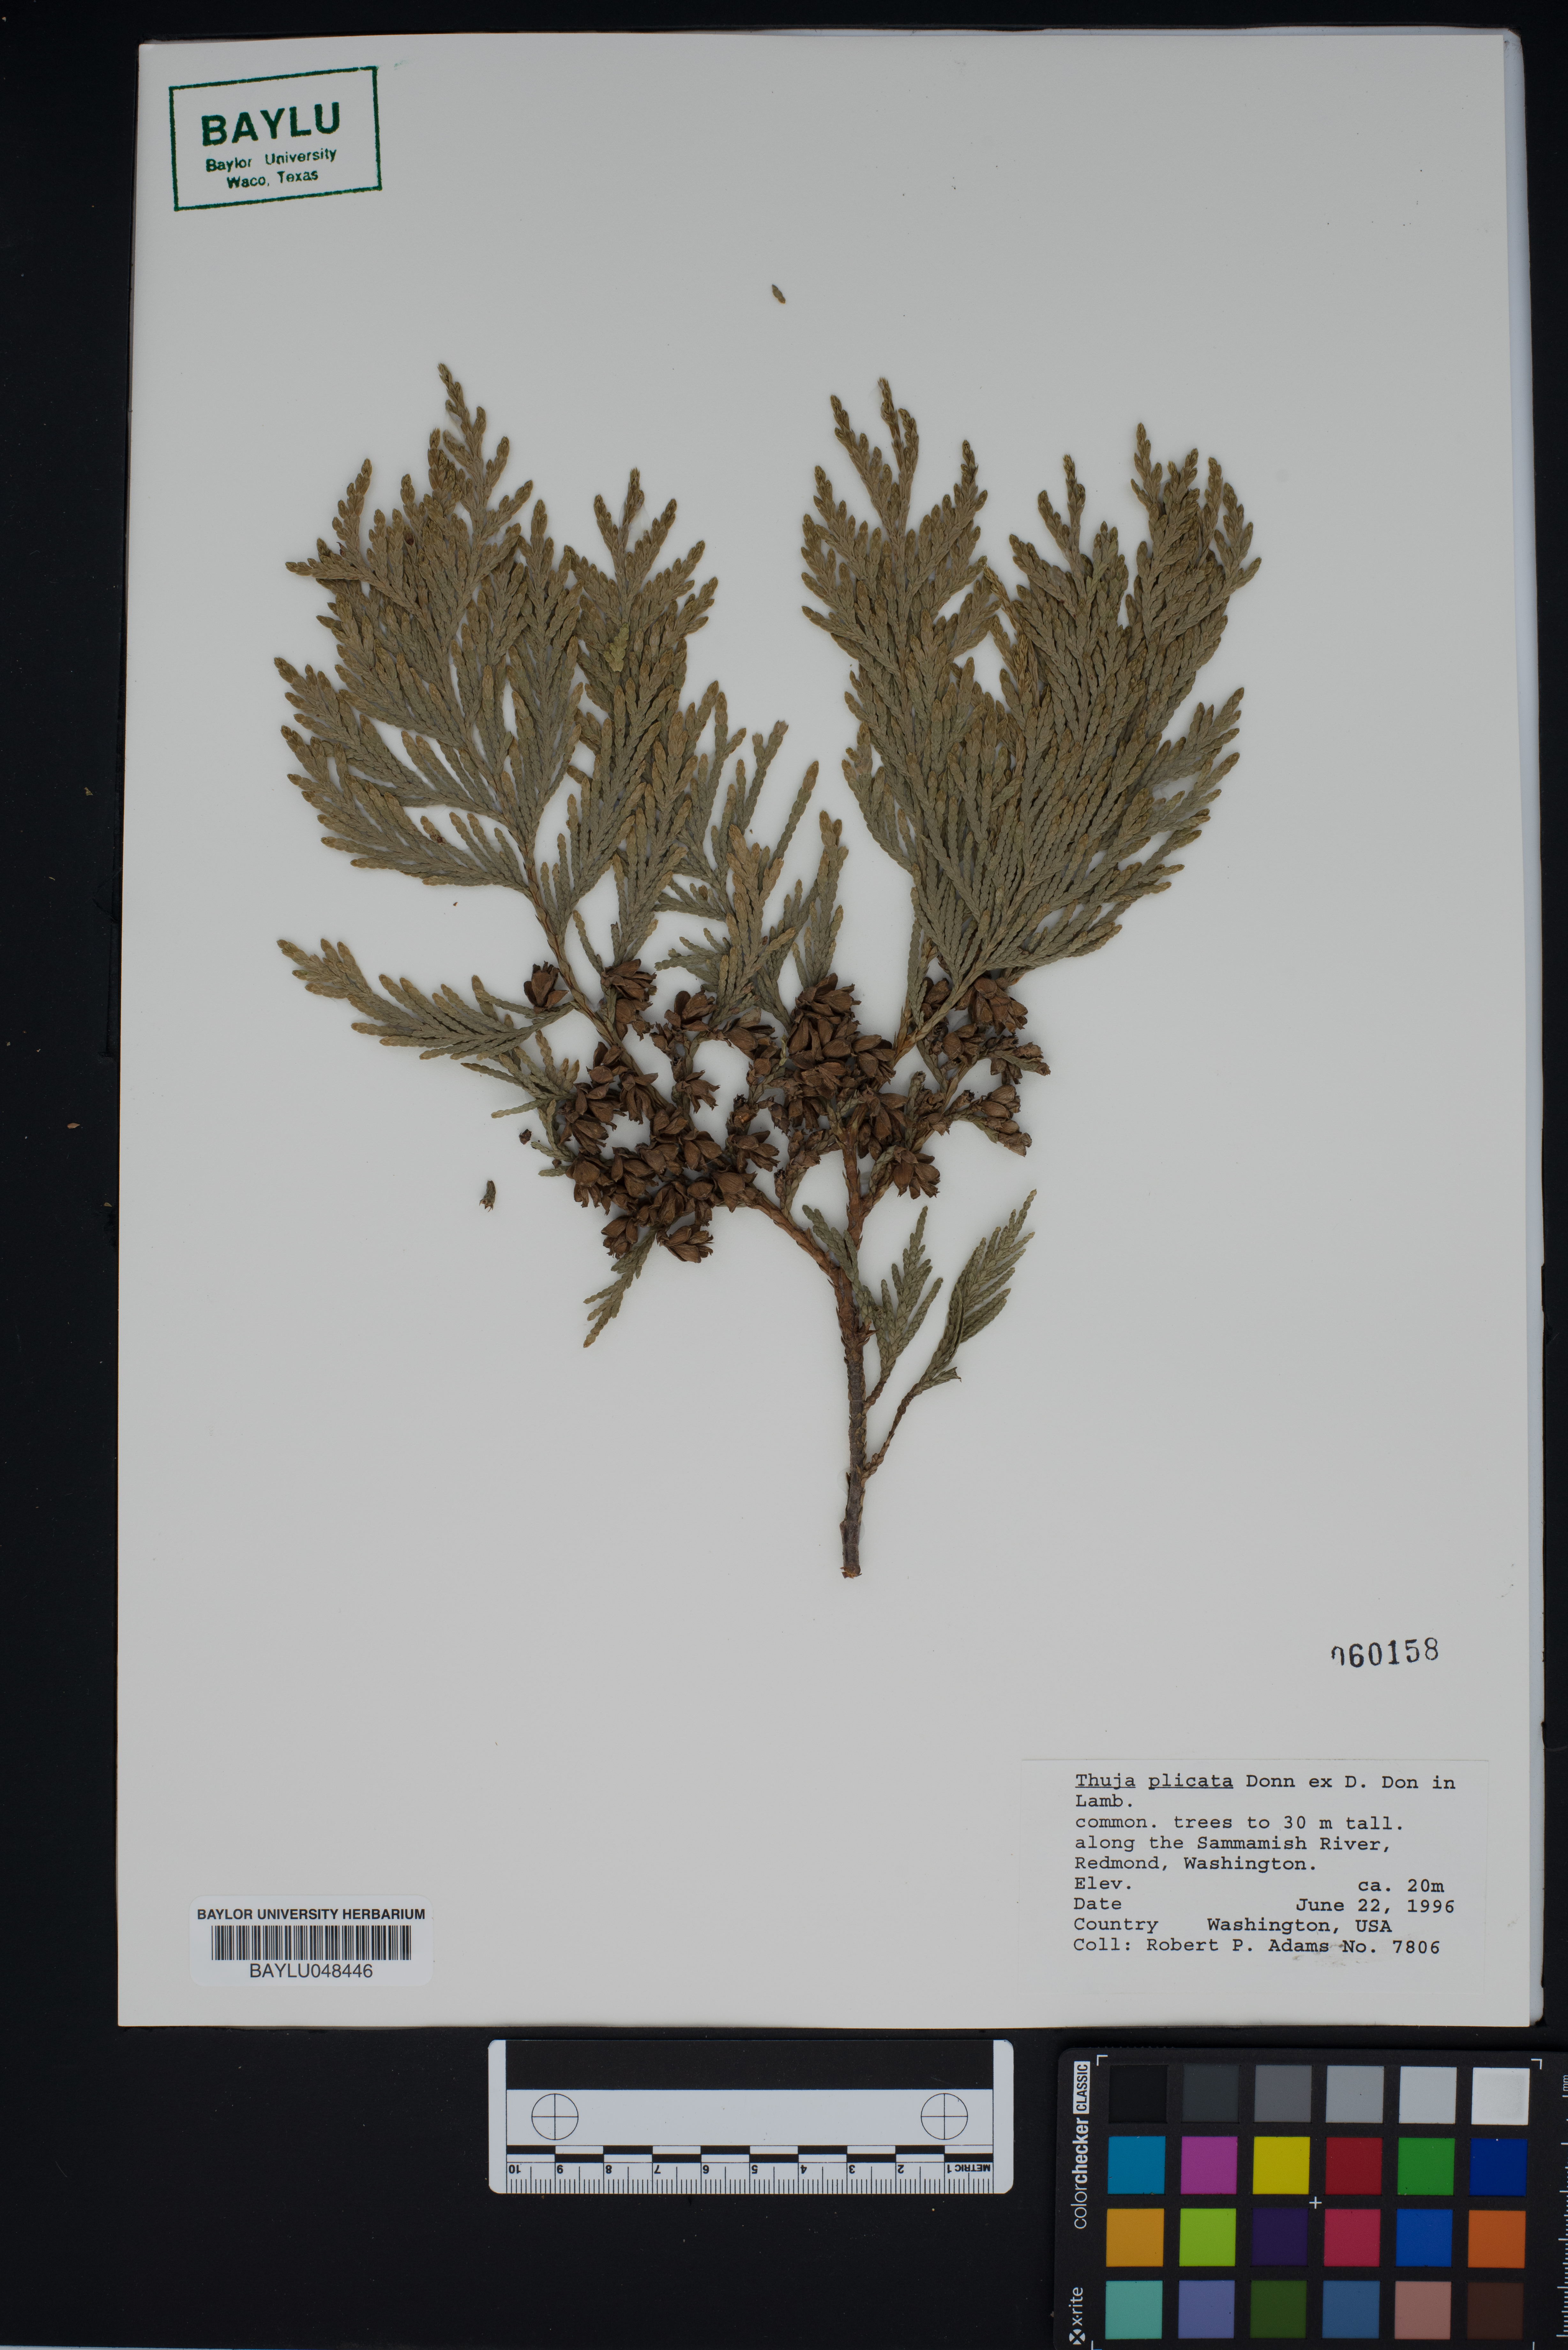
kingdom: Plantae
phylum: Tracheophyta
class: Pinopsida
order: Pinales
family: Cupressaceae
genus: Thuja
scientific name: Thuja plicata
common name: Western red-cedar
